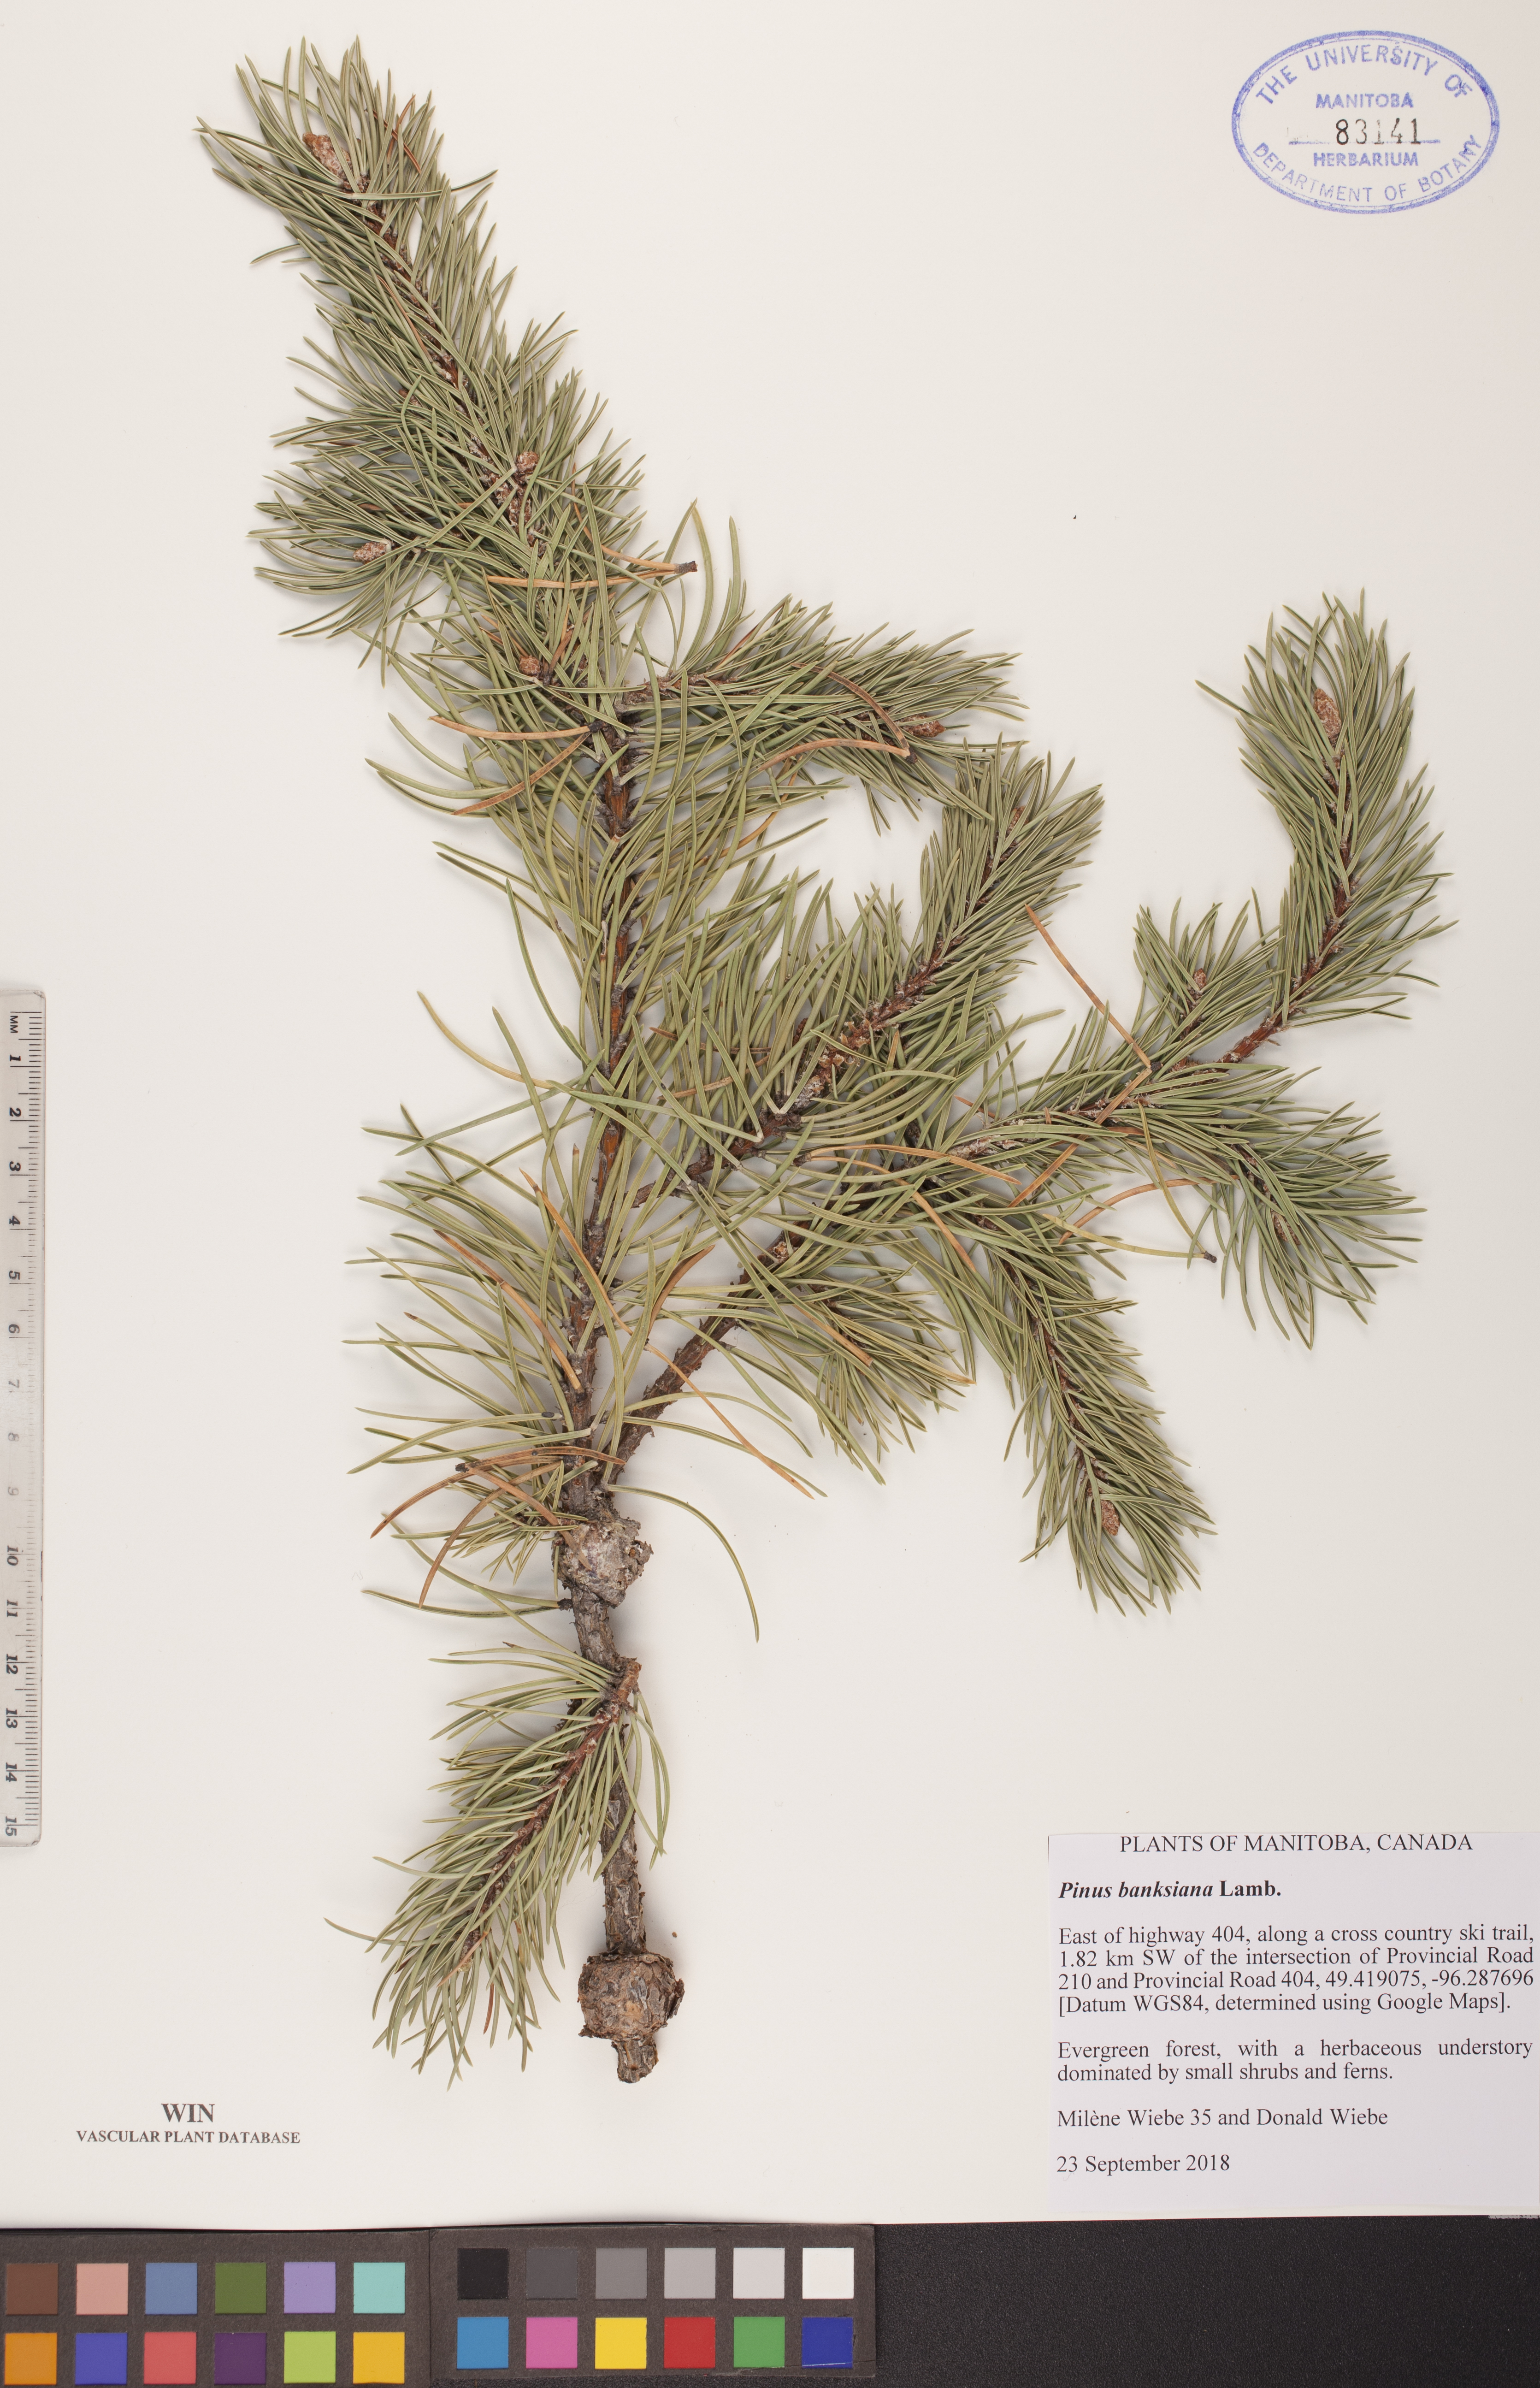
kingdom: Plantae
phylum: Tracheophyta
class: Pinopsida
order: Pinales
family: Pinaceae
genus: Pinus
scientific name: Pinus banksiana
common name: Jack pine
